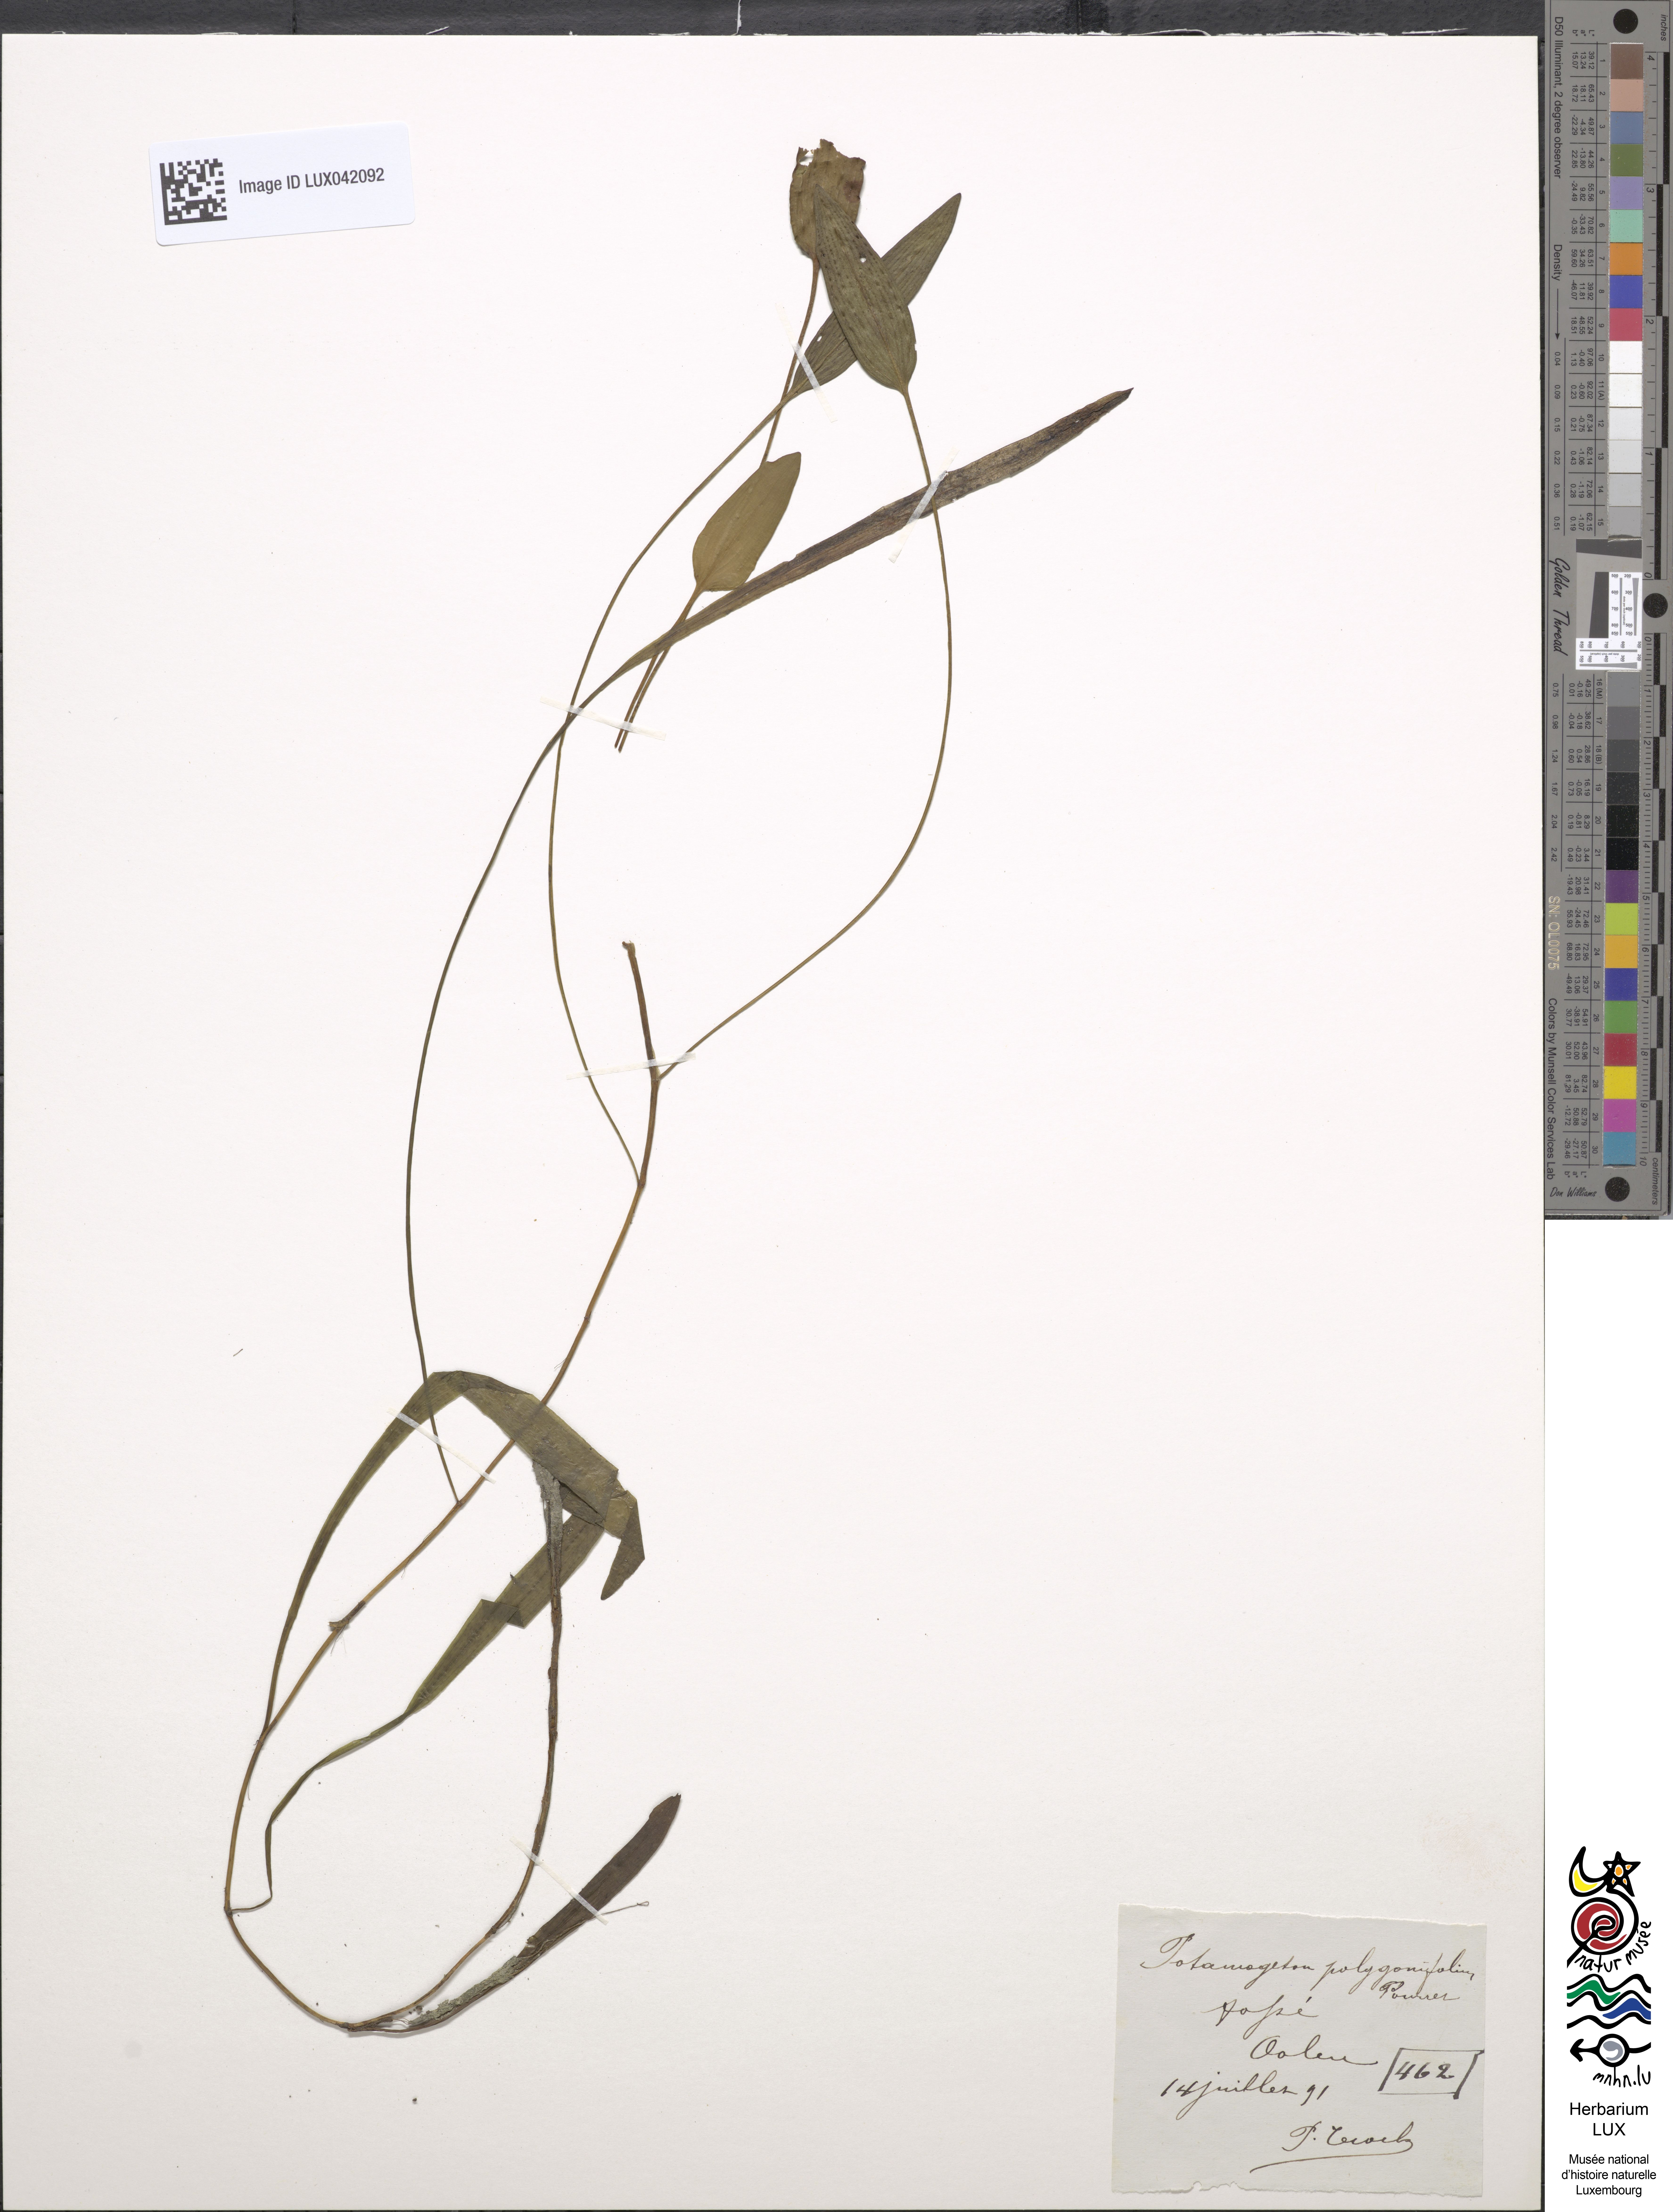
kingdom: Plantae
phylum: Tracheophyta
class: Liliopsida
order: Alismatales
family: Potamogetonaceae
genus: Potamogeton
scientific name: Potamogeton polygonifolius
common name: Bog pondweed
